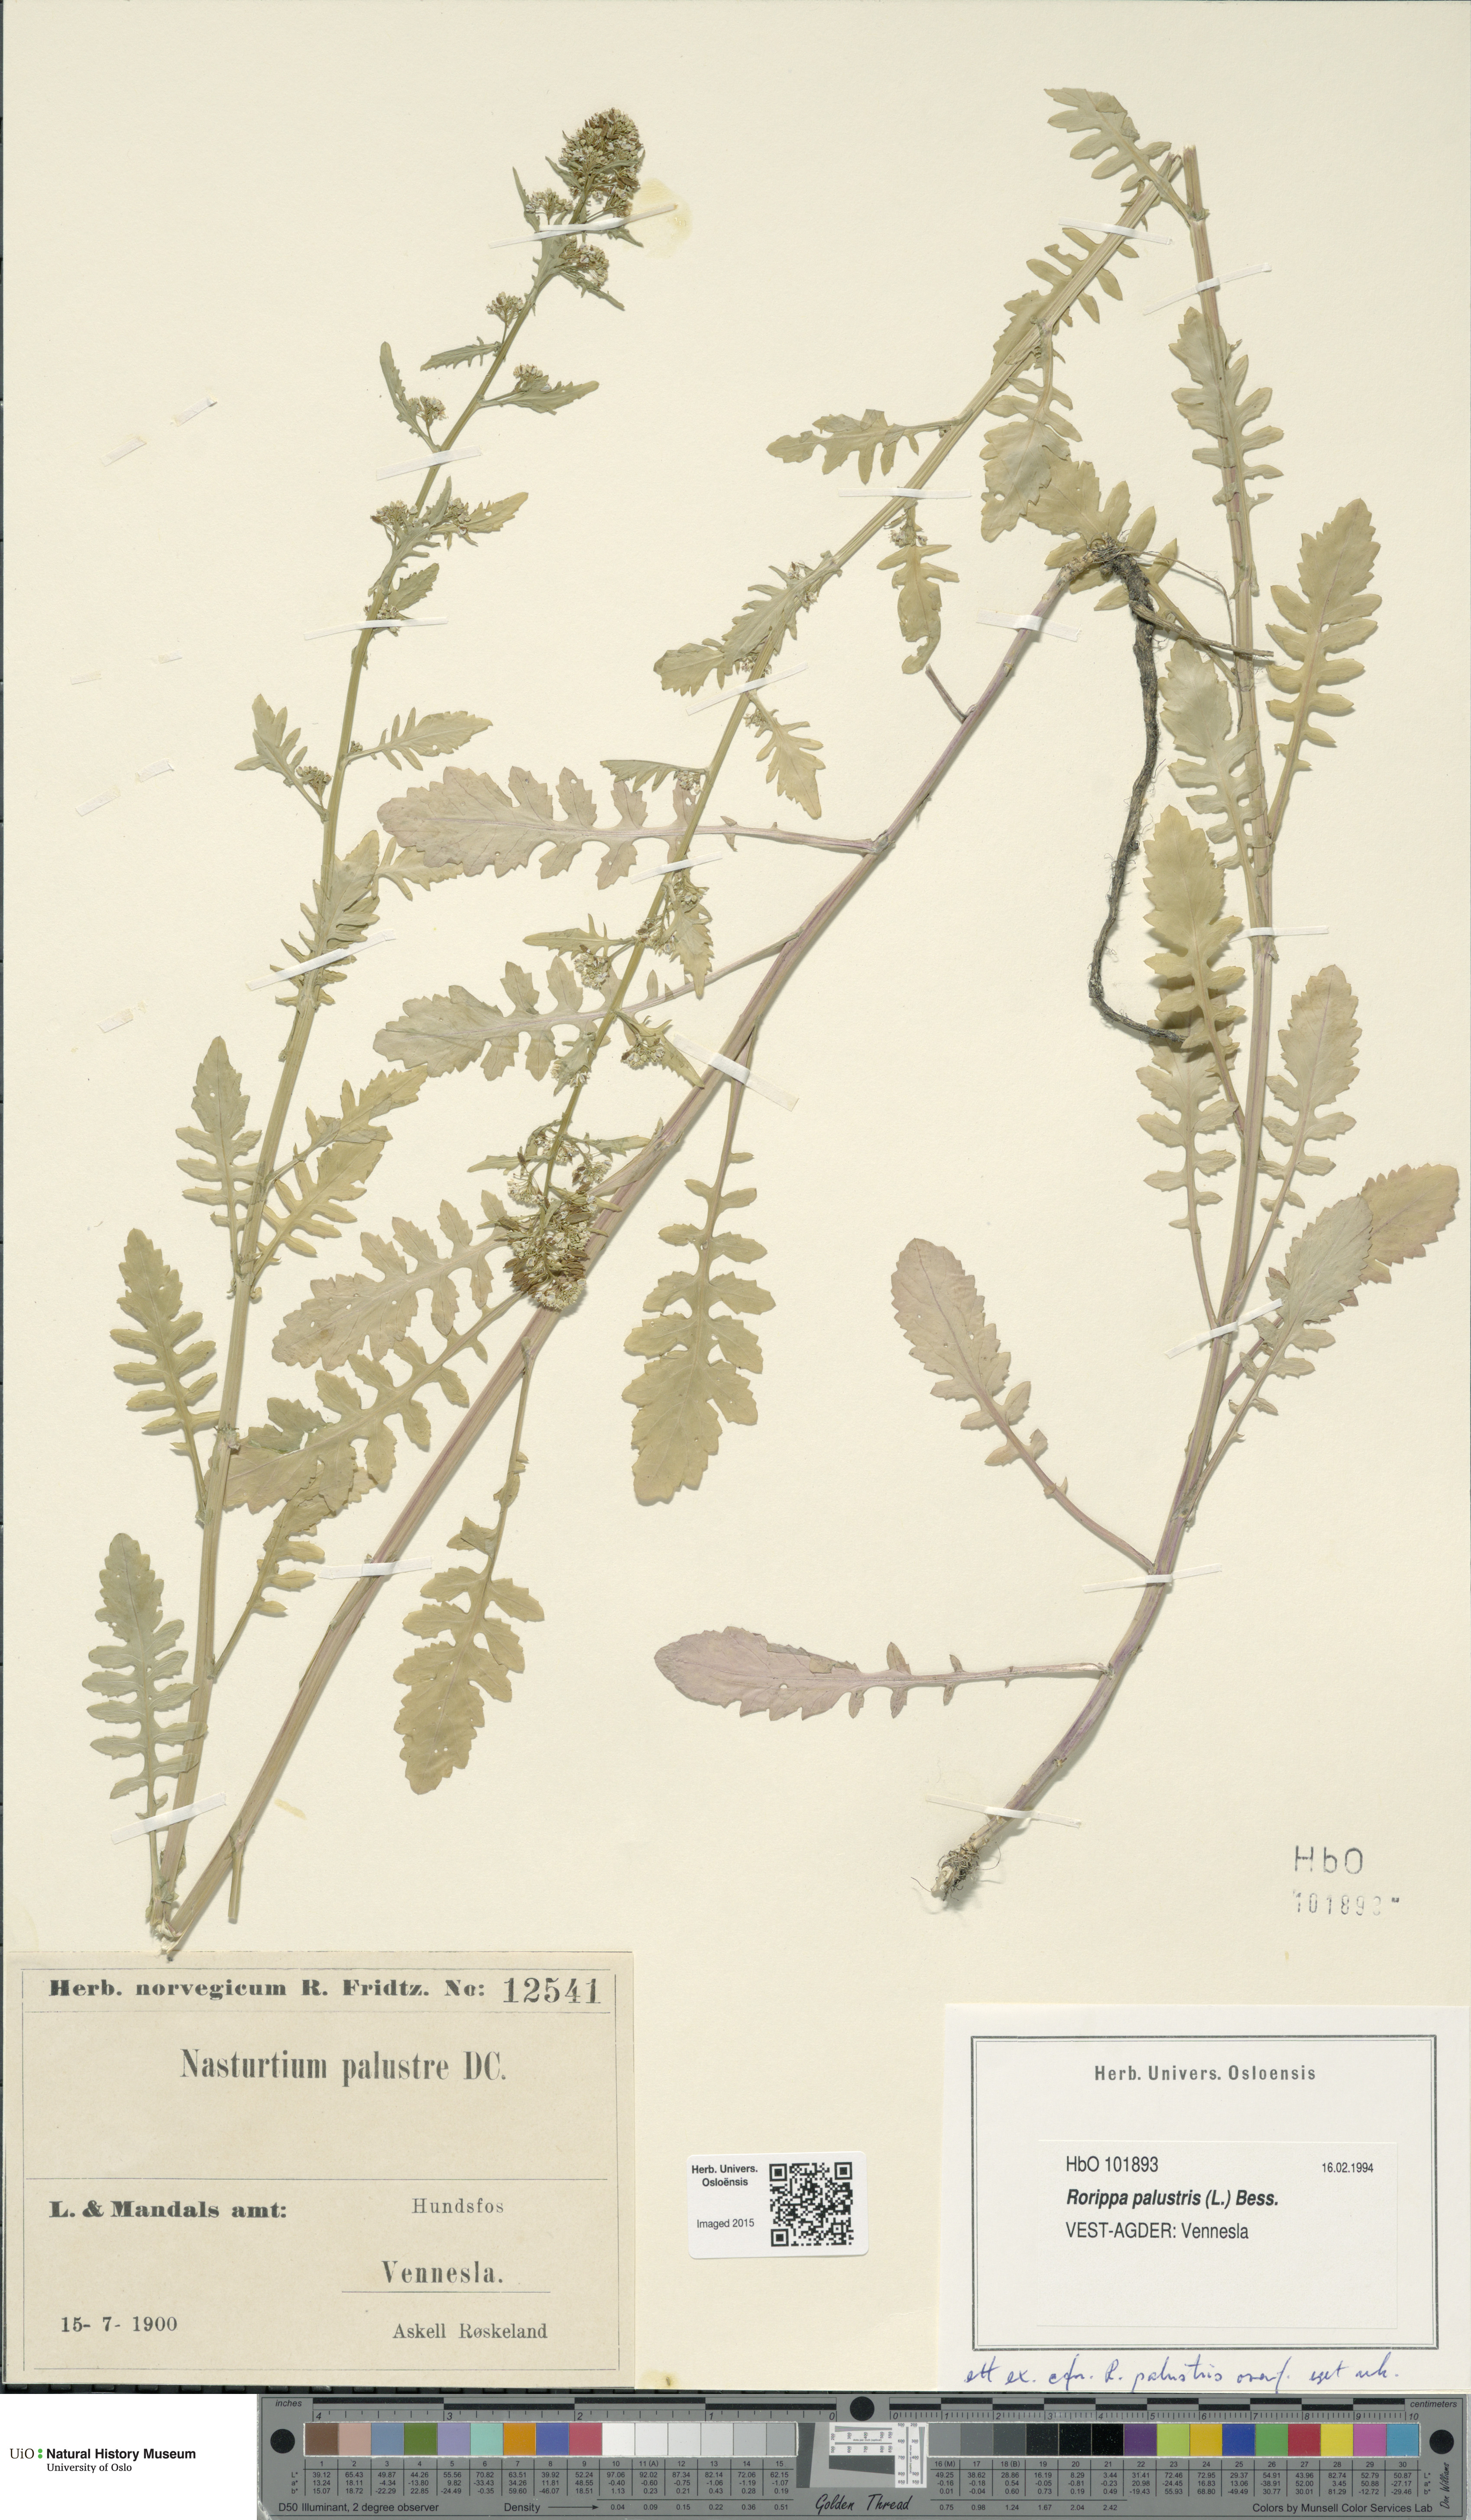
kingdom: Plantae
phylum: Tracheophyta
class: Magnoliopsida
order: Brassicales
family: Brassicaceae
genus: Rorippa
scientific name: Rorippa palustris
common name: Marsh yellow-cress
